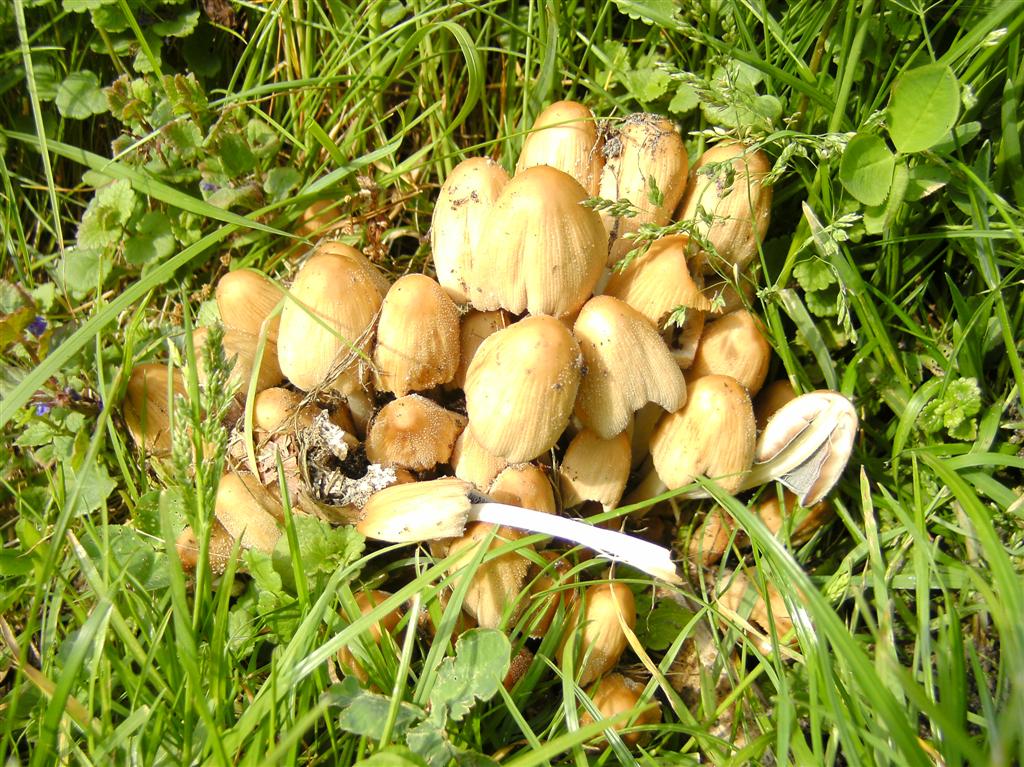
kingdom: Fungi
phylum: Basidiomycota
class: Agaricomycetes
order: Agaricales
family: Psathyrellaceae
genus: Coprinellus
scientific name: Coprinellus micaceus
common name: glimmer-blækhat
